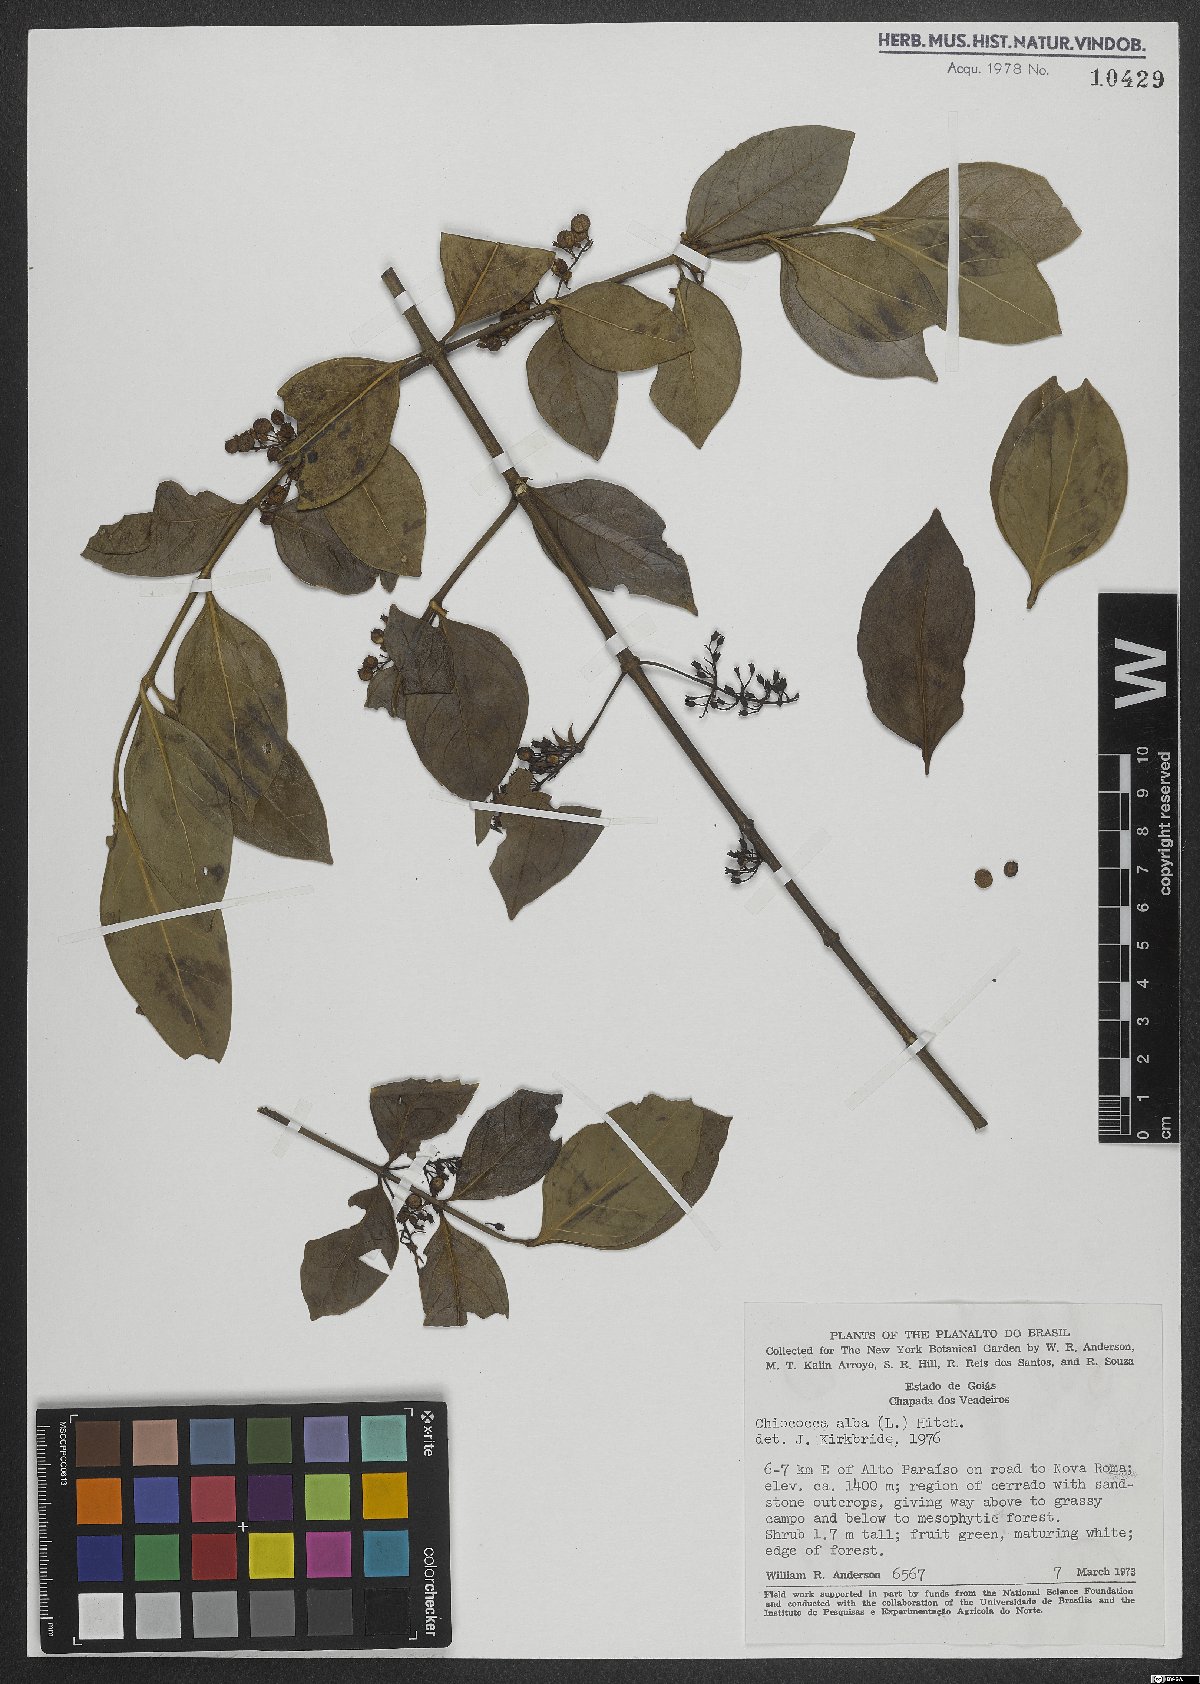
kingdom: Plantae
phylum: Tracheophyta
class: Magnoliopsida
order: Gentianales
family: Rubiaceae
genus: Chiococca
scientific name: Chiococca alba
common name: Snowberry
